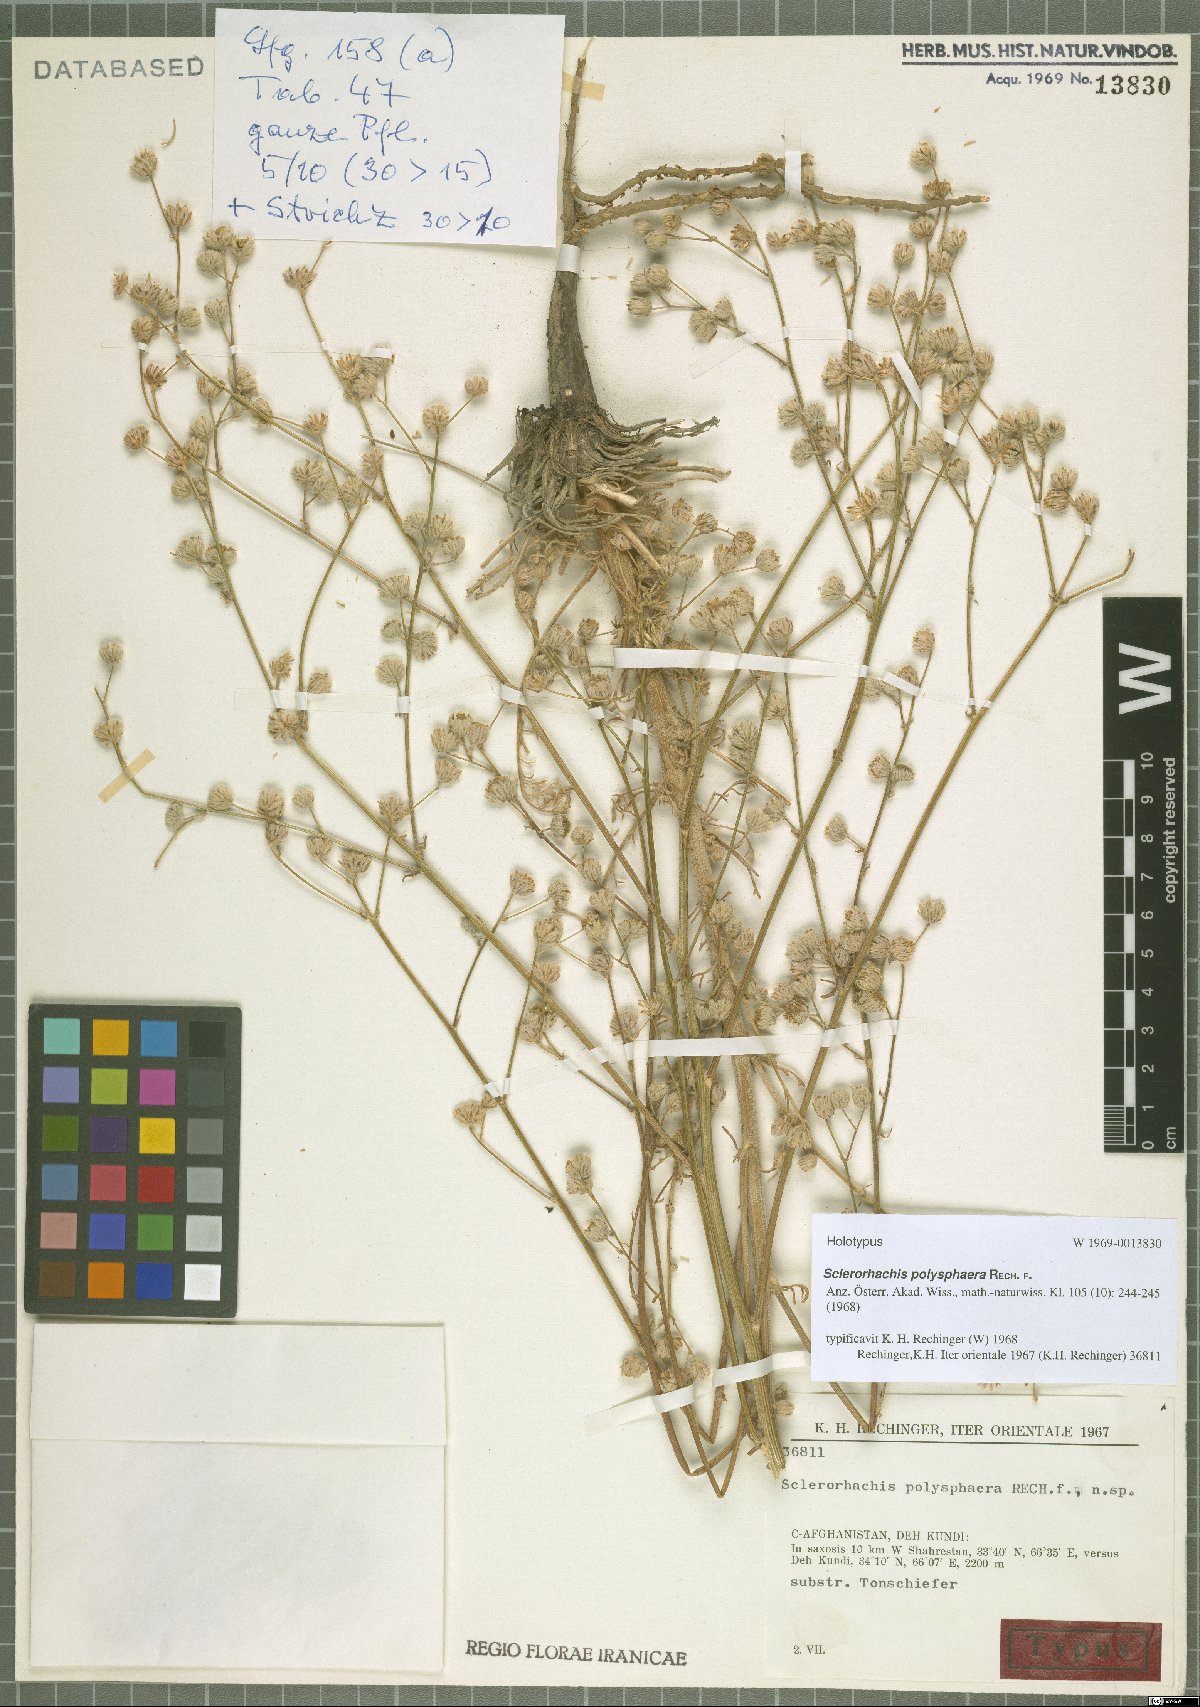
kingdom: Plantae
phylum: Tracheophyta
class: Magnoliopsida
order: Asterales
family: Asteraceae
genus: Sclerorhachis
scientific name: Sclerorhachis polysphaera
